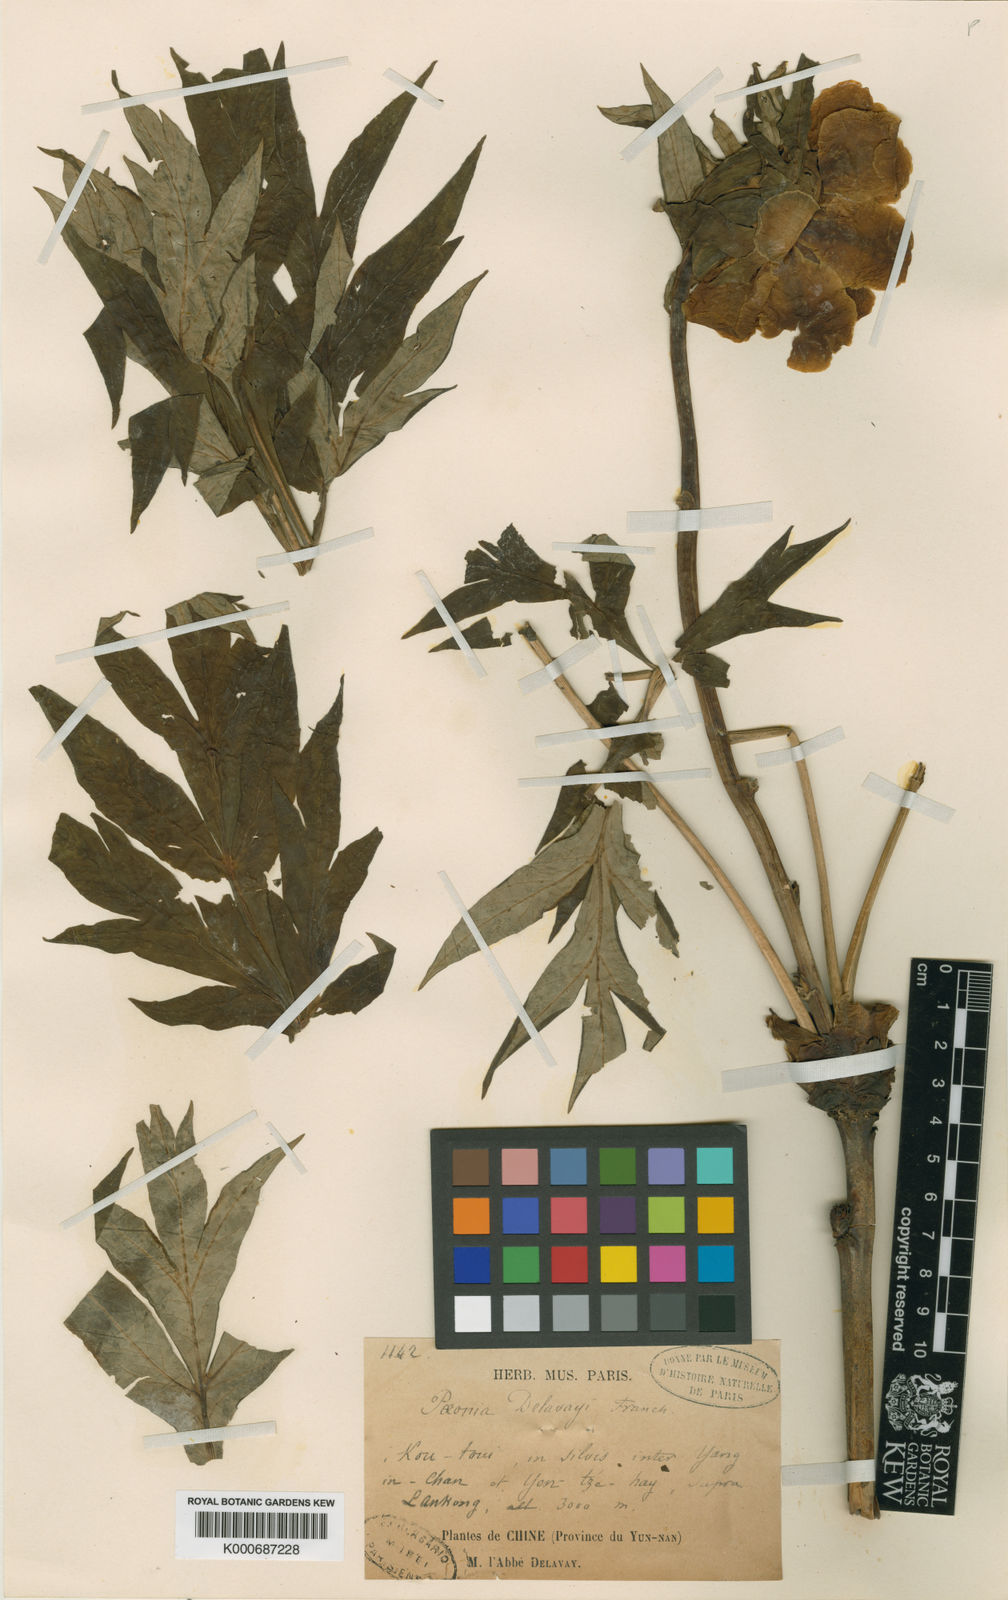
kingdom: Plantae
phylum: Tracheophyta
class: Magnoliopsida
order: Saxifragales
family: Paeoniaceae
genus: Paeonia
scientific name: Paeonia delavayi
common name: Dian mu dan
